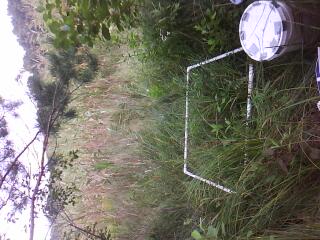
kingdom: Plantae
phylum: Tracheophyta
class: Liliopsida
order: Poales
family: Poaceae
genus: Muhlenbergia
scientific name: Muhlenbergia mexicana
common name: Mexican muhly
